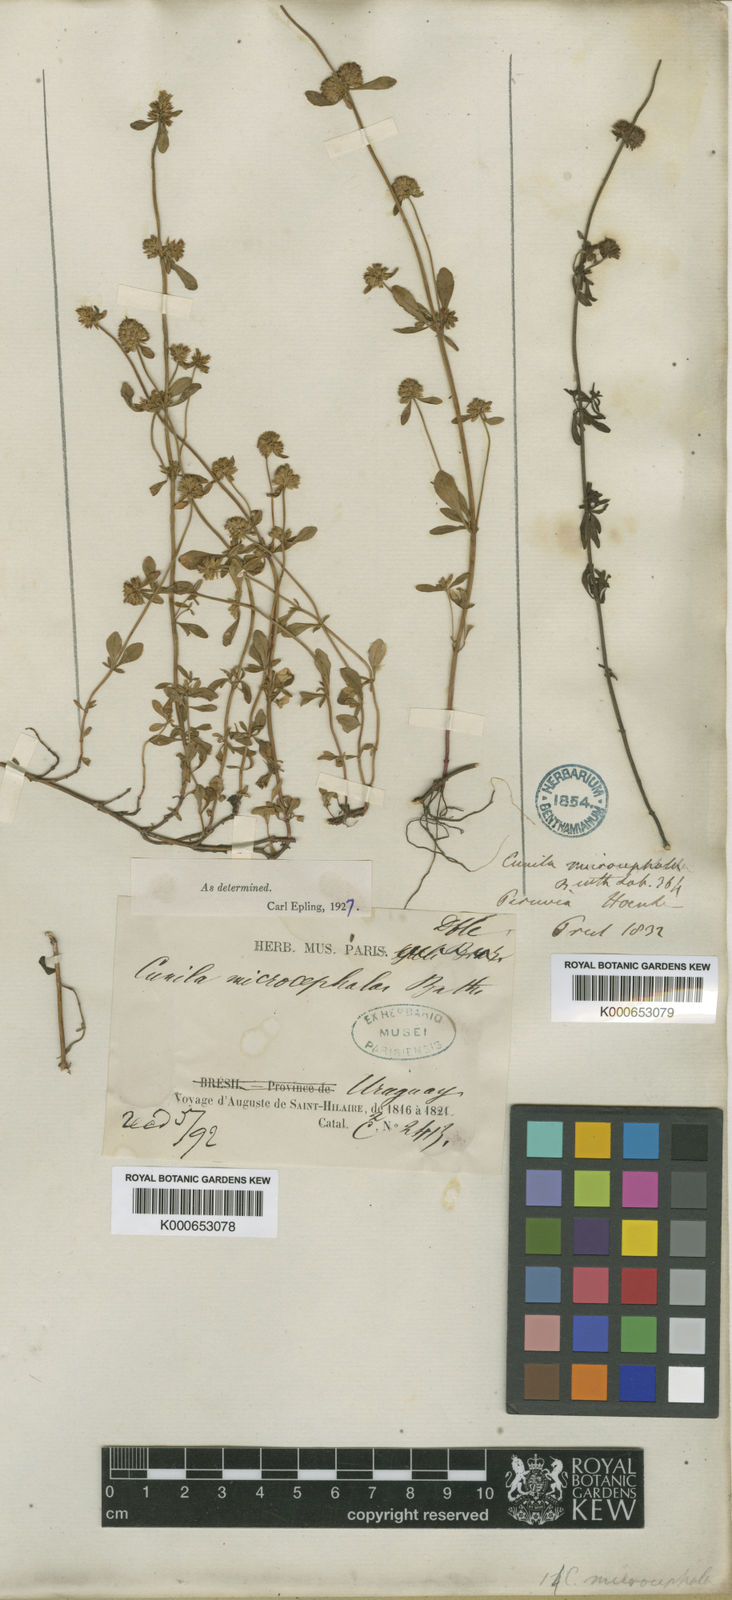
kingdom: Plantae
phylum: Tracheophyta
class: Magnoliopsida
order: Lamiales
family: Lamiaceae
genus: Cunila
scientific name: Cunila microcephala
